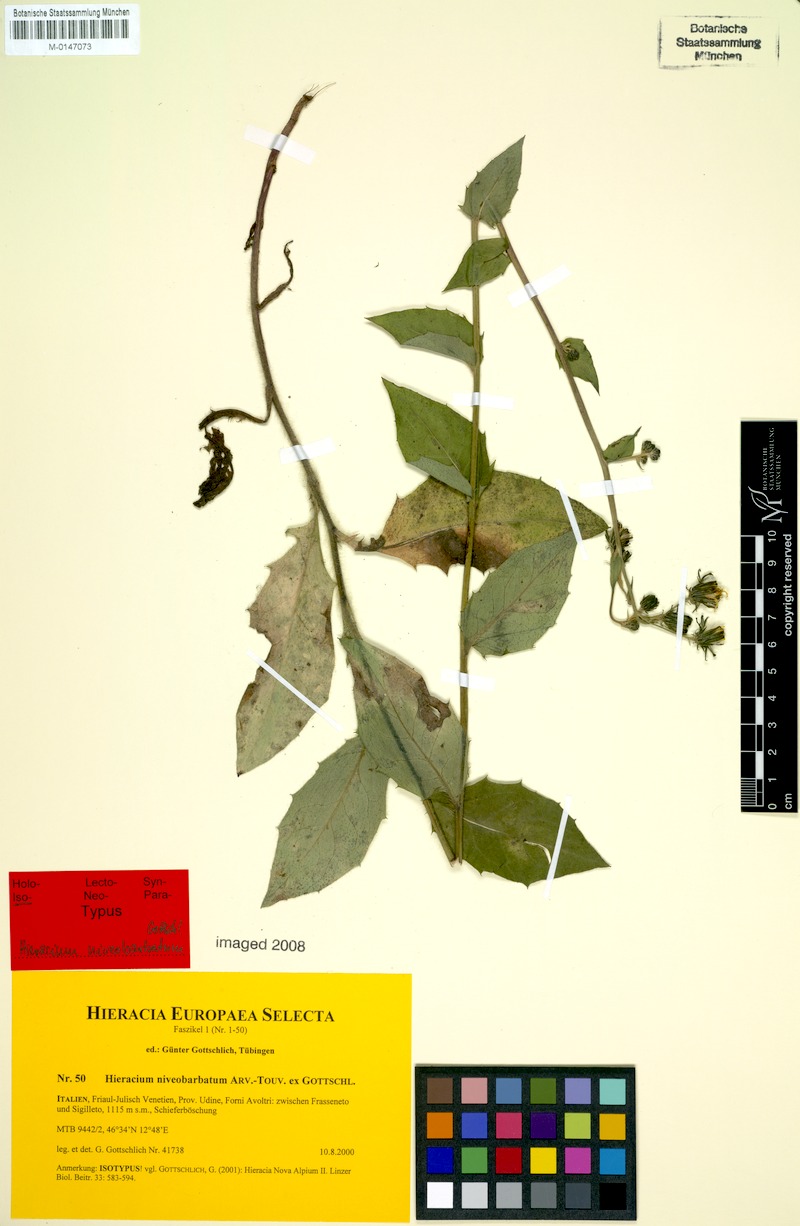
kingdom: Plantae
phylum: Tracheophyta
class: Magnoliopsida
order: Asterales
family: Asteraceae
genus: Hieracium
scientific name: Hieracium niveobarbatum
